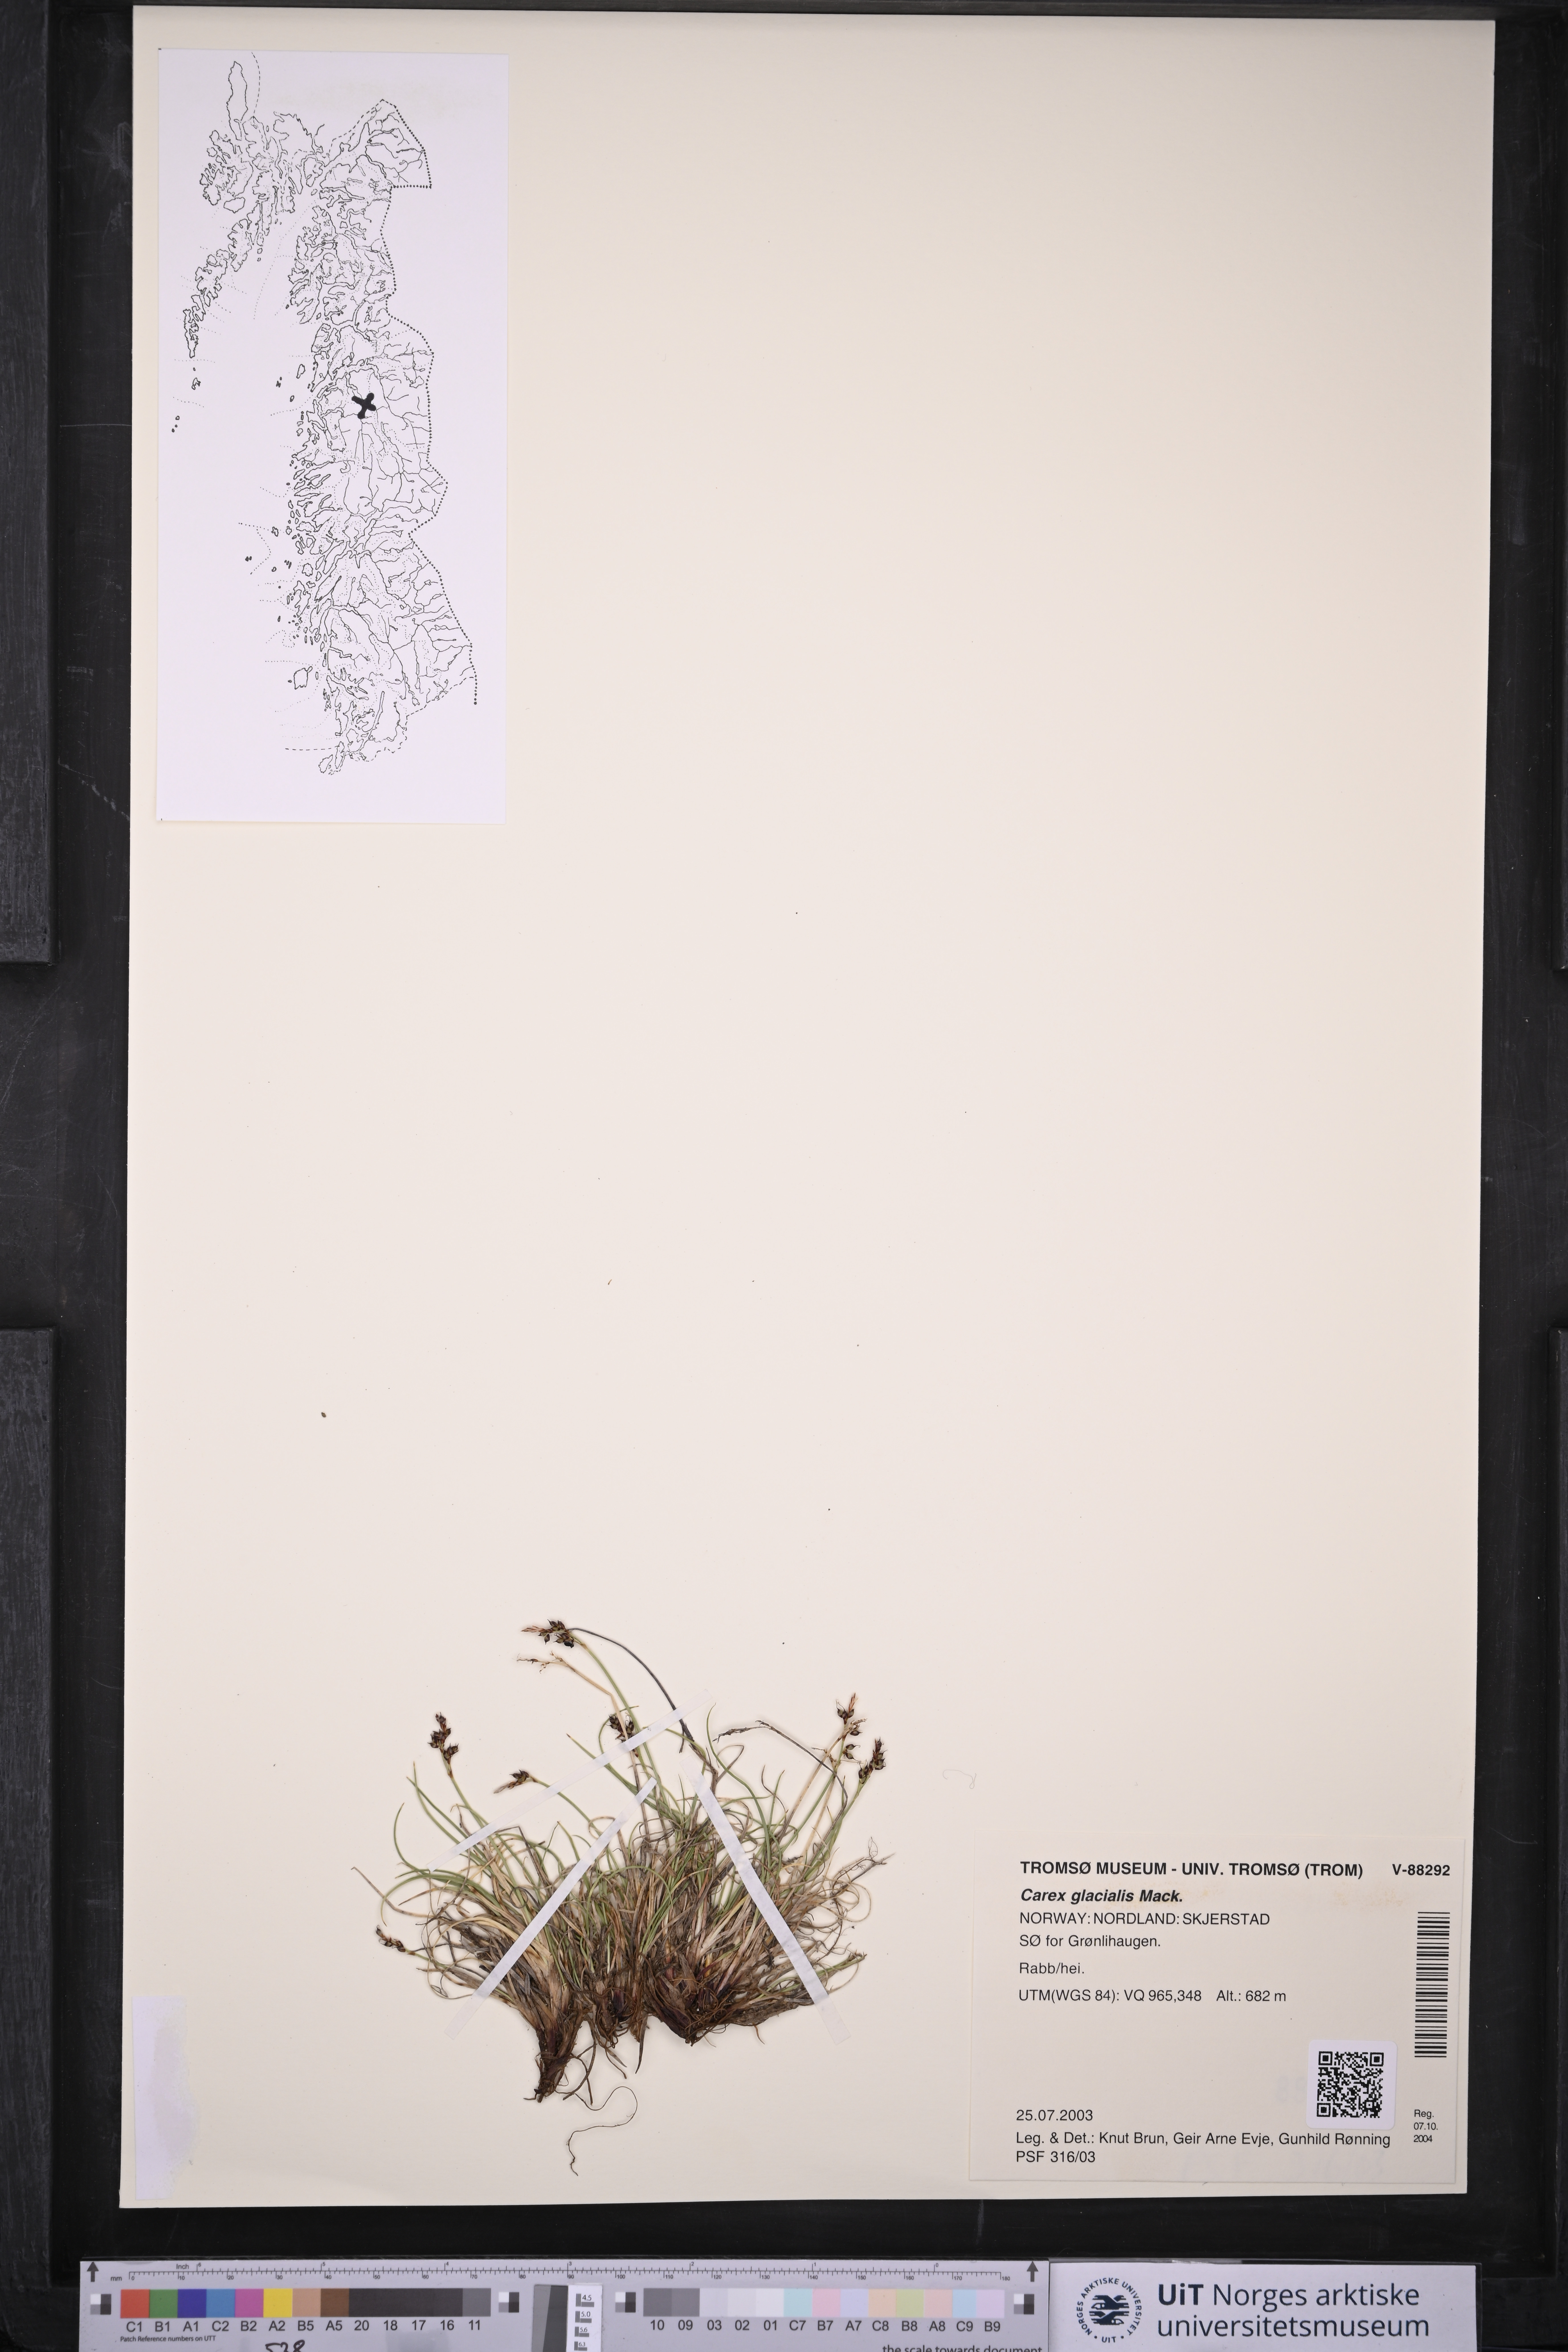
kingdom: Plantae
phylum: Tracheophyta
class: Liliopsida
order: Poales
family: Cyperaceae
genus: Carex
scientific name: Carex glacialis
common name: Newfoundland sedge
